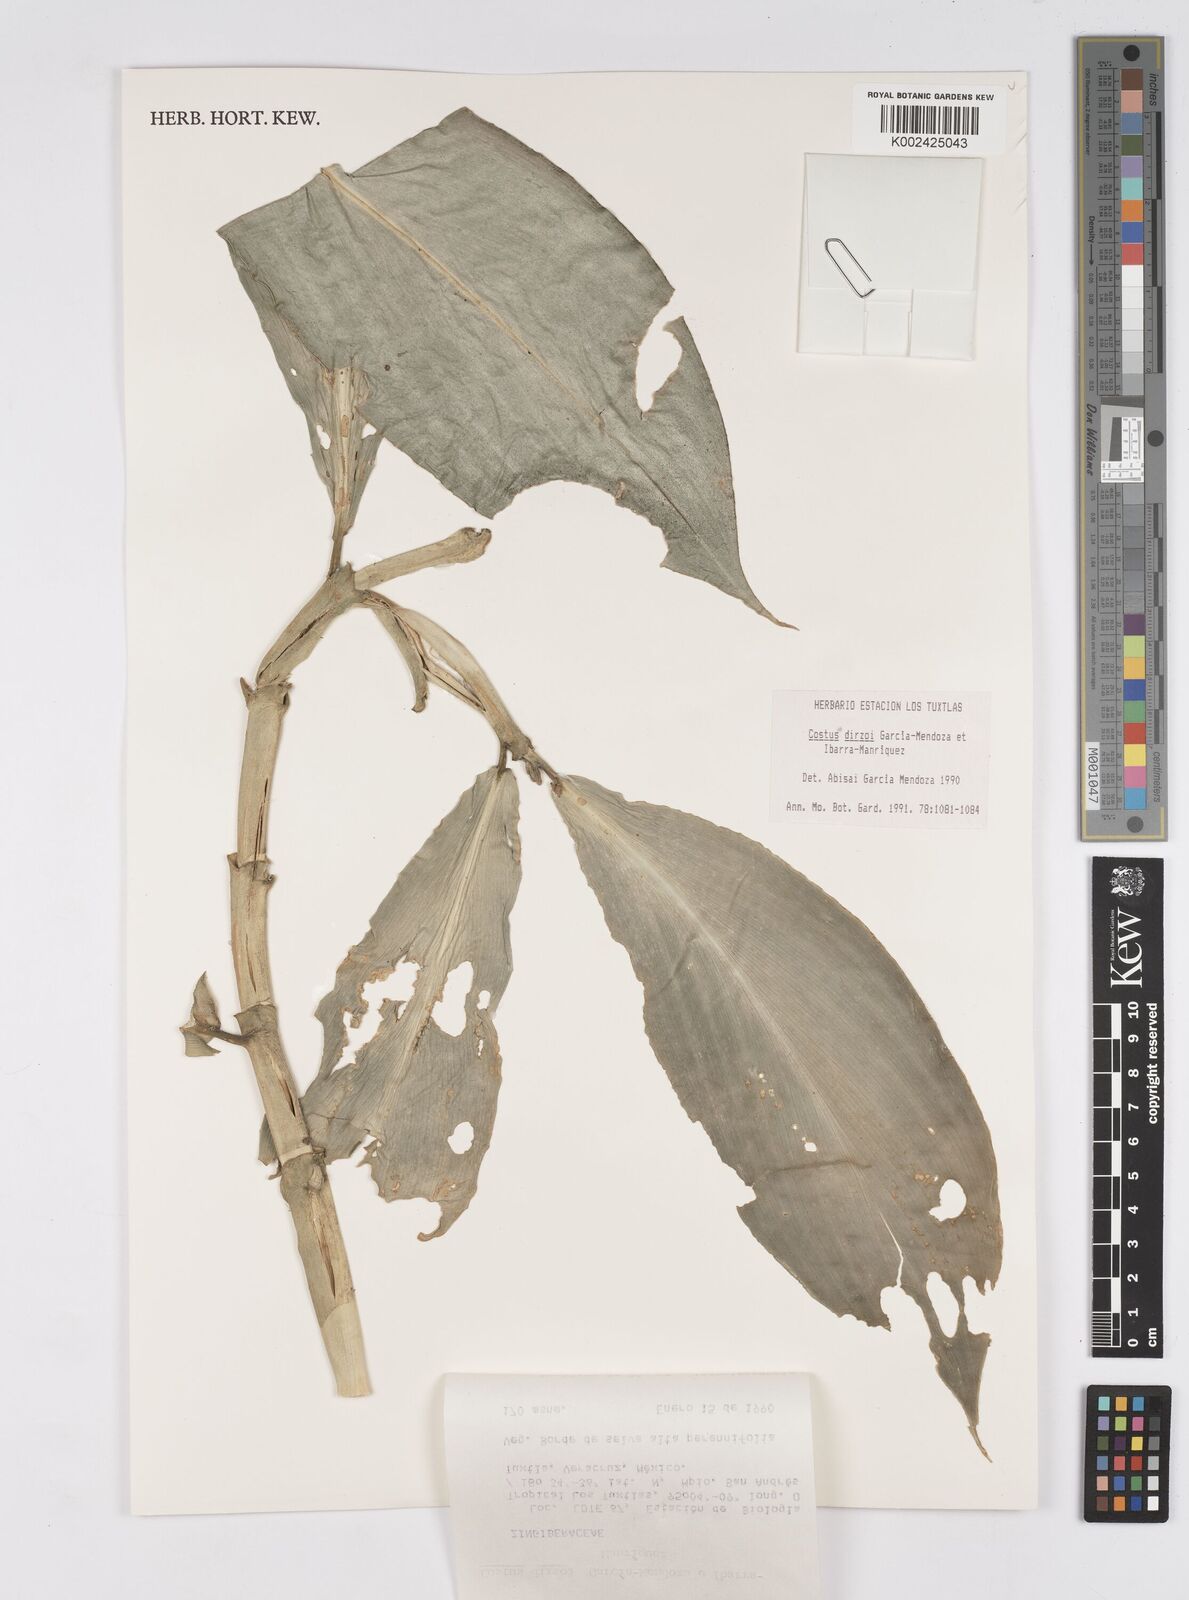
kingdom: Plantae
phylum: Tracheophyta
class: Liliopsida
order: Zingiberales
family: Costaceae
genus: Costus
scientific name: Costus dirzoi
